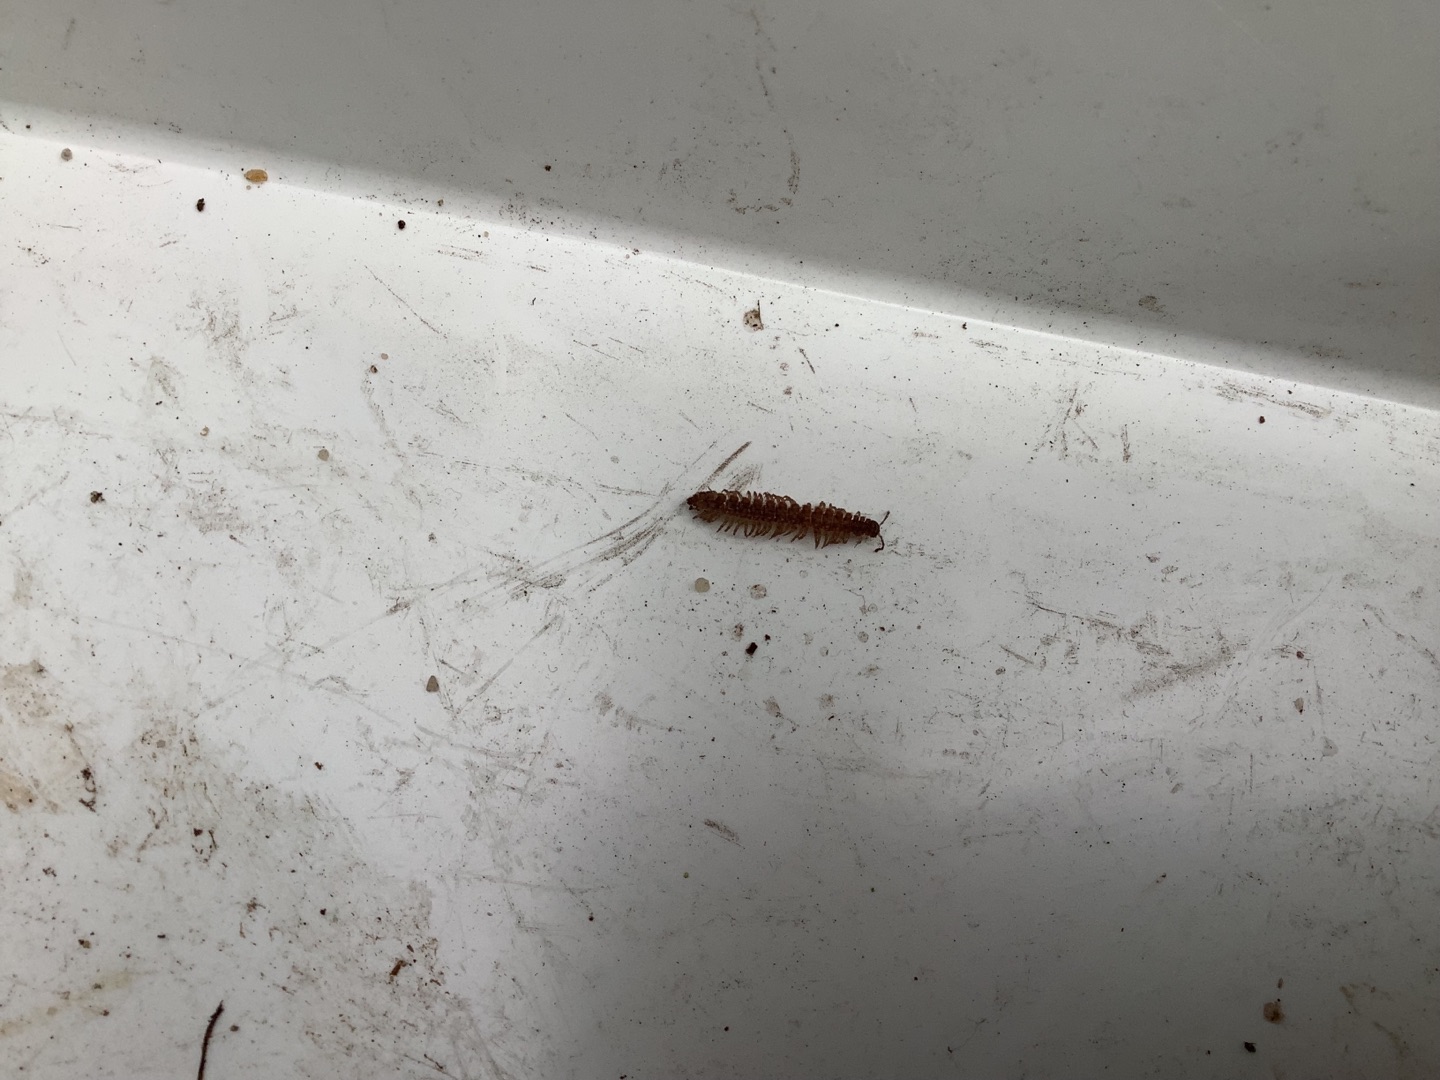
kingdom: Animalia
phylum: Arthropoda
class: Diplopoda
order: Polydesmida
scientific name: Polydesmida
